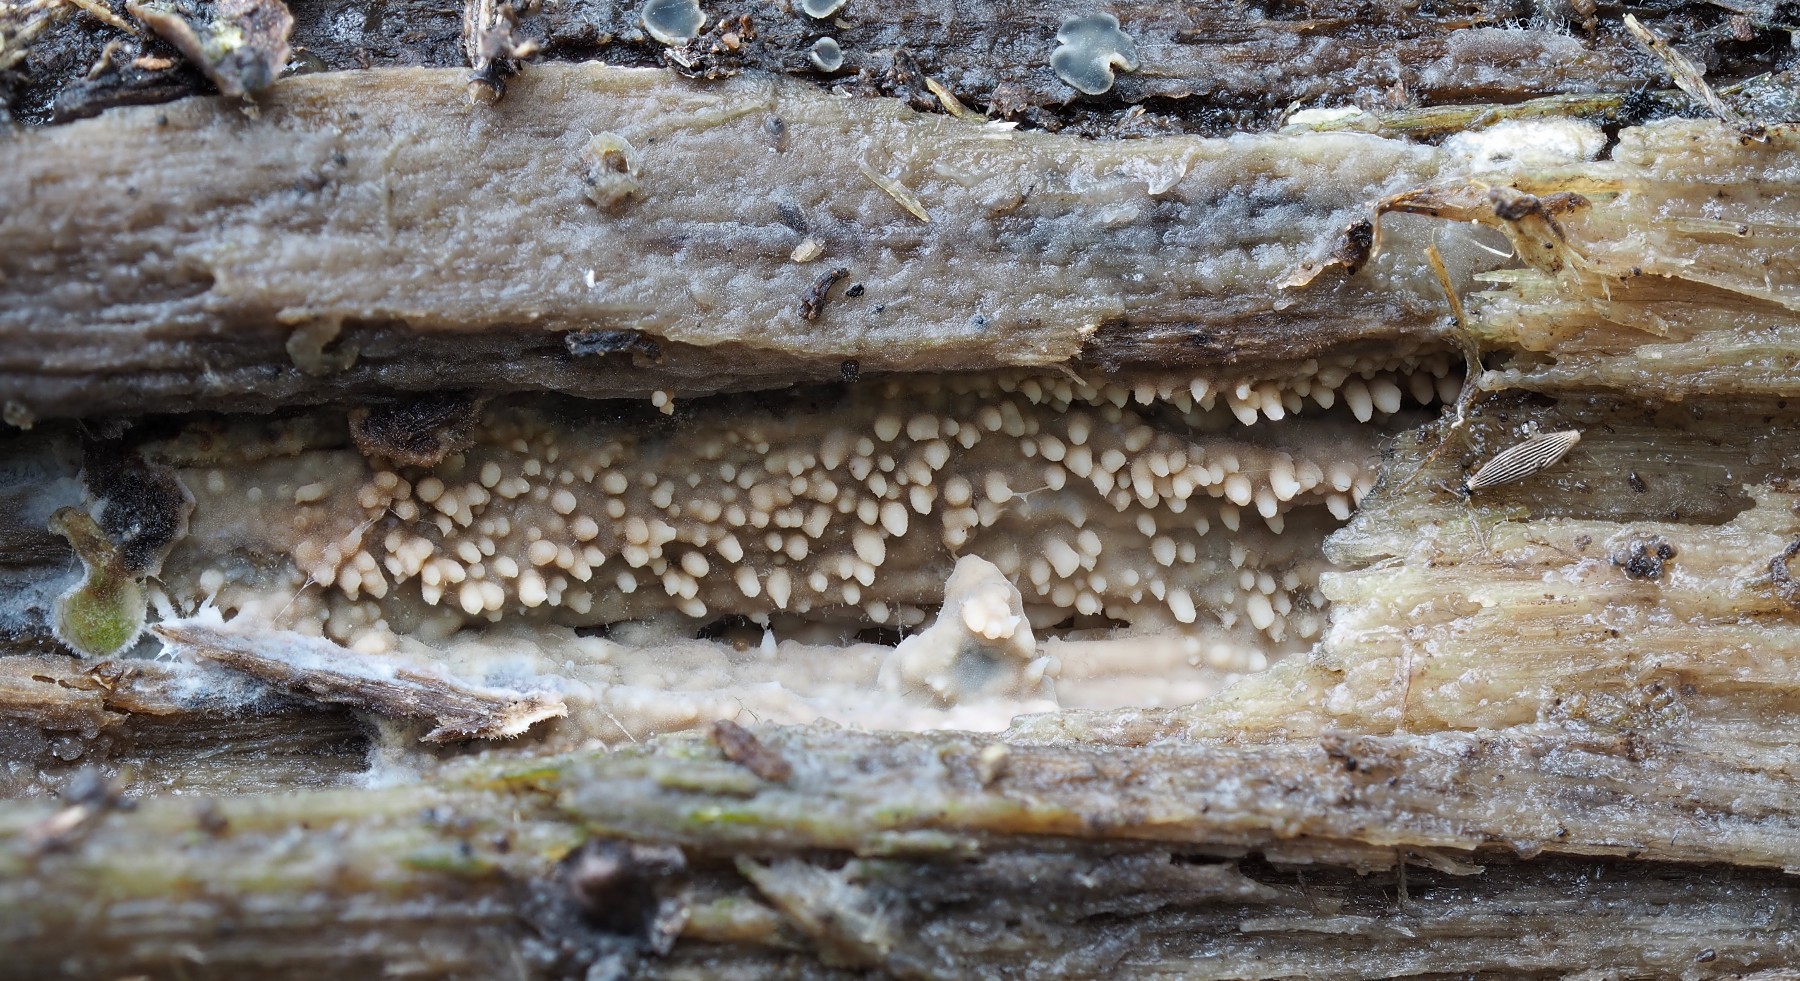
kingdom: Fungi
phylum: Basidiomycota
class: Agaricomycetes
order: Polyporales
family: Meruliaceae
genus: Mycoacia
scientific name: Mycoacia fuscoatra
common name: mørk vokspig
